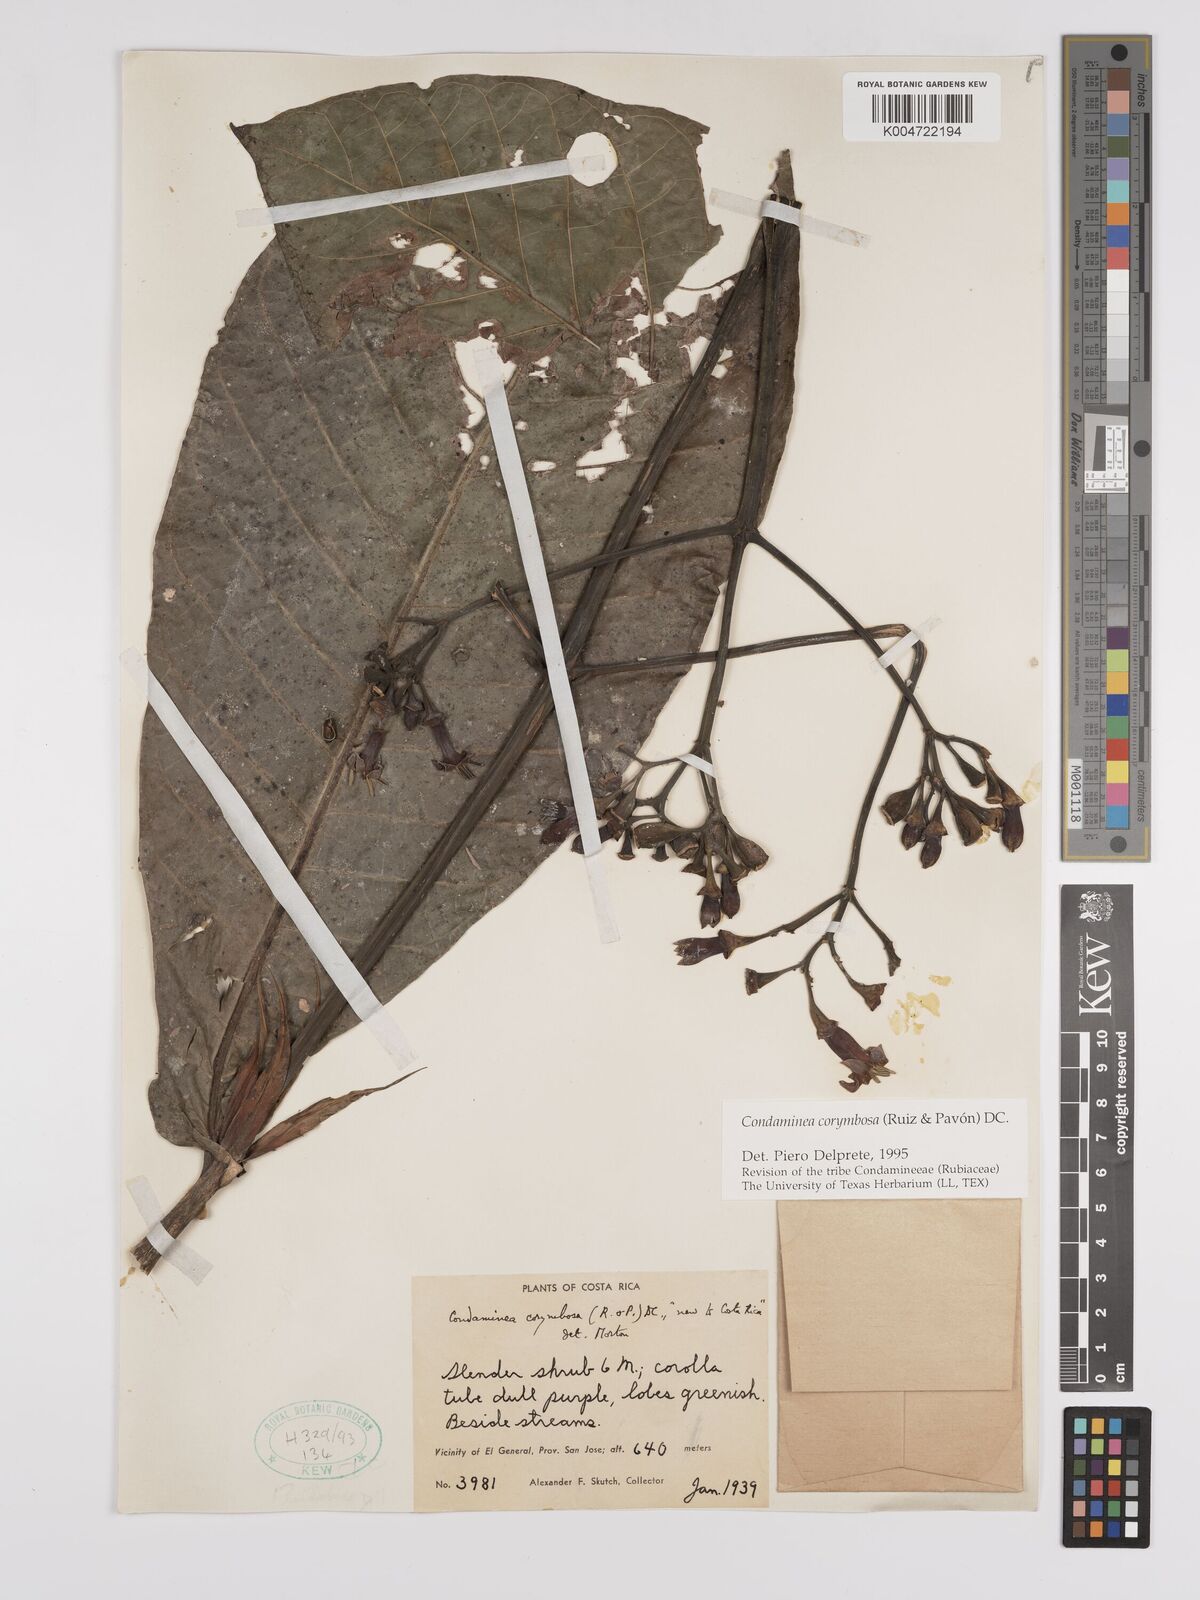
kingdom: Plantae
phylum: Tracheophyta
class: Magnoliopsida
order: Gentianales
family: Rubiaceae
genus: Condaminea
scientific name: Condaminea corymbosa
